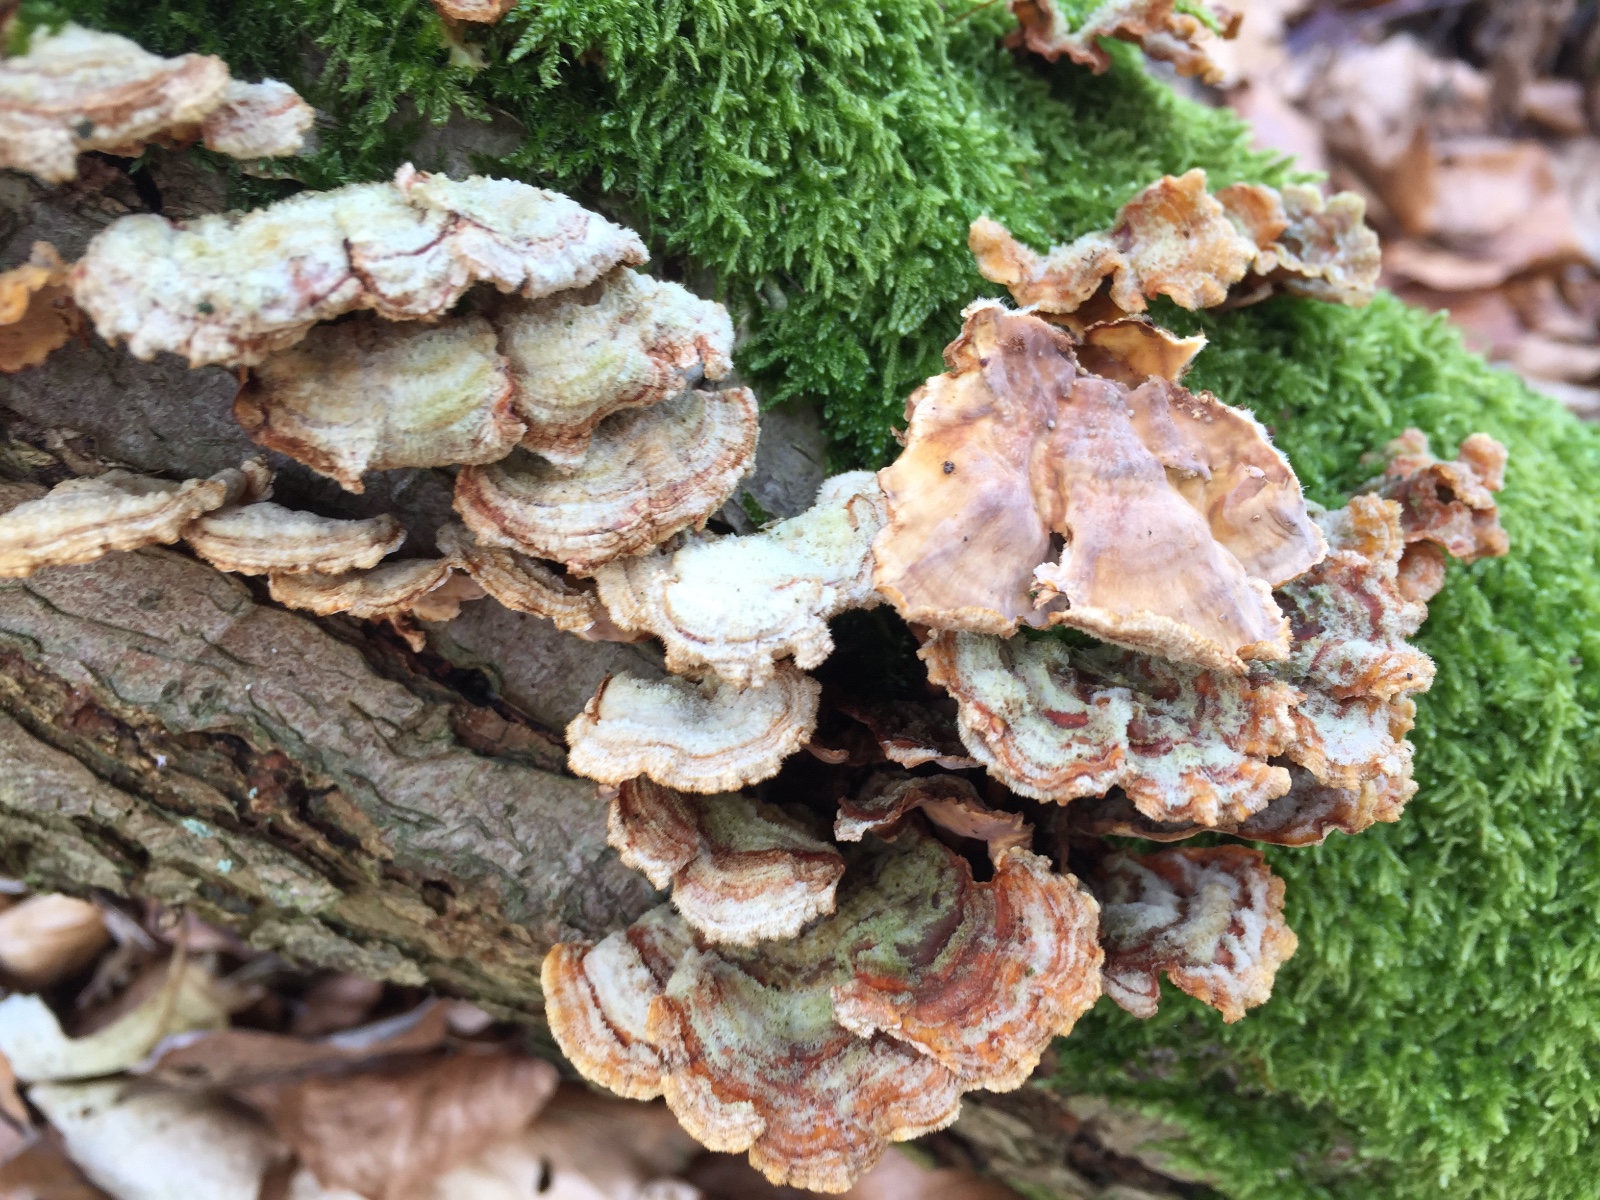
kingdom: Fungi
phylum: Basidiomycota
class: Agaricomycetes
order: Russulales
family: Stereaceae
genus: Stereum
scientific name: Stereum hirsutum
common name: håret lædersvamp
